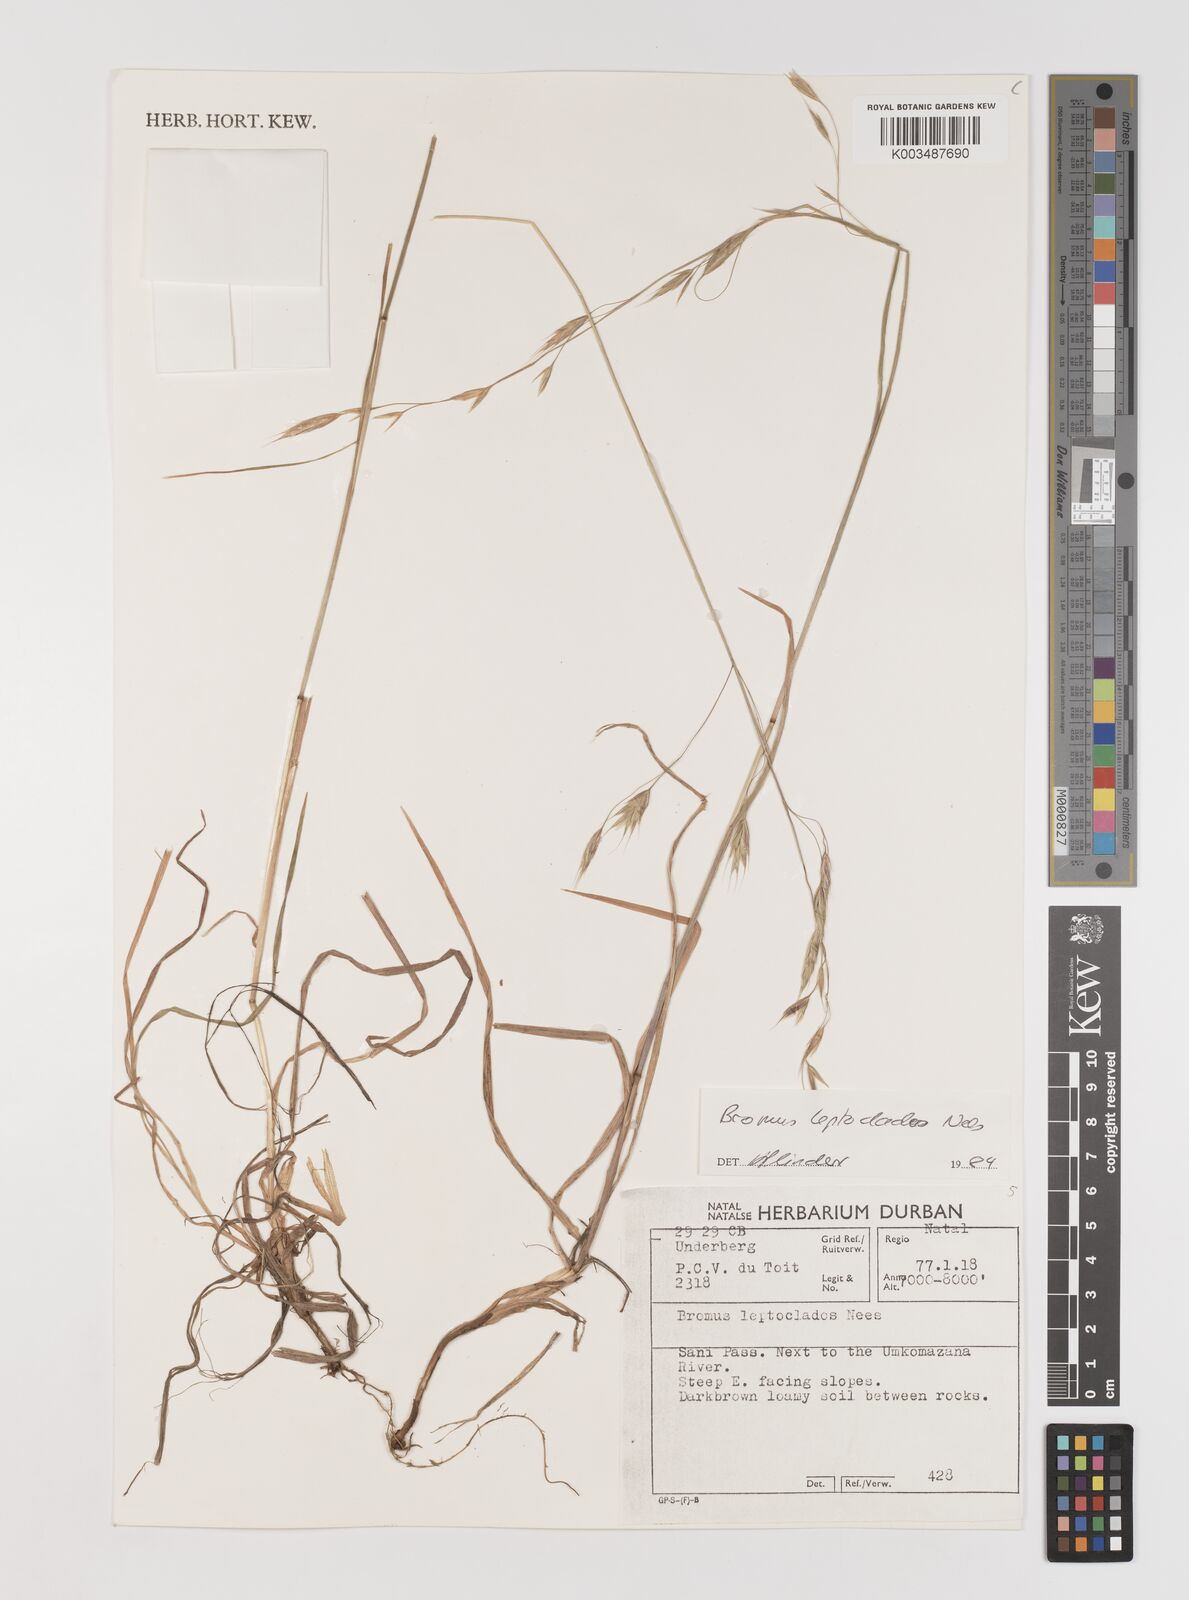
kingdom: Plantae
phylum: Tracheophyta
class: Liliopsida
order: Poales
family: Poaceae
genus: Bromus
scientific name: Bromus leptoclados
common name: Mountain bromegrass
